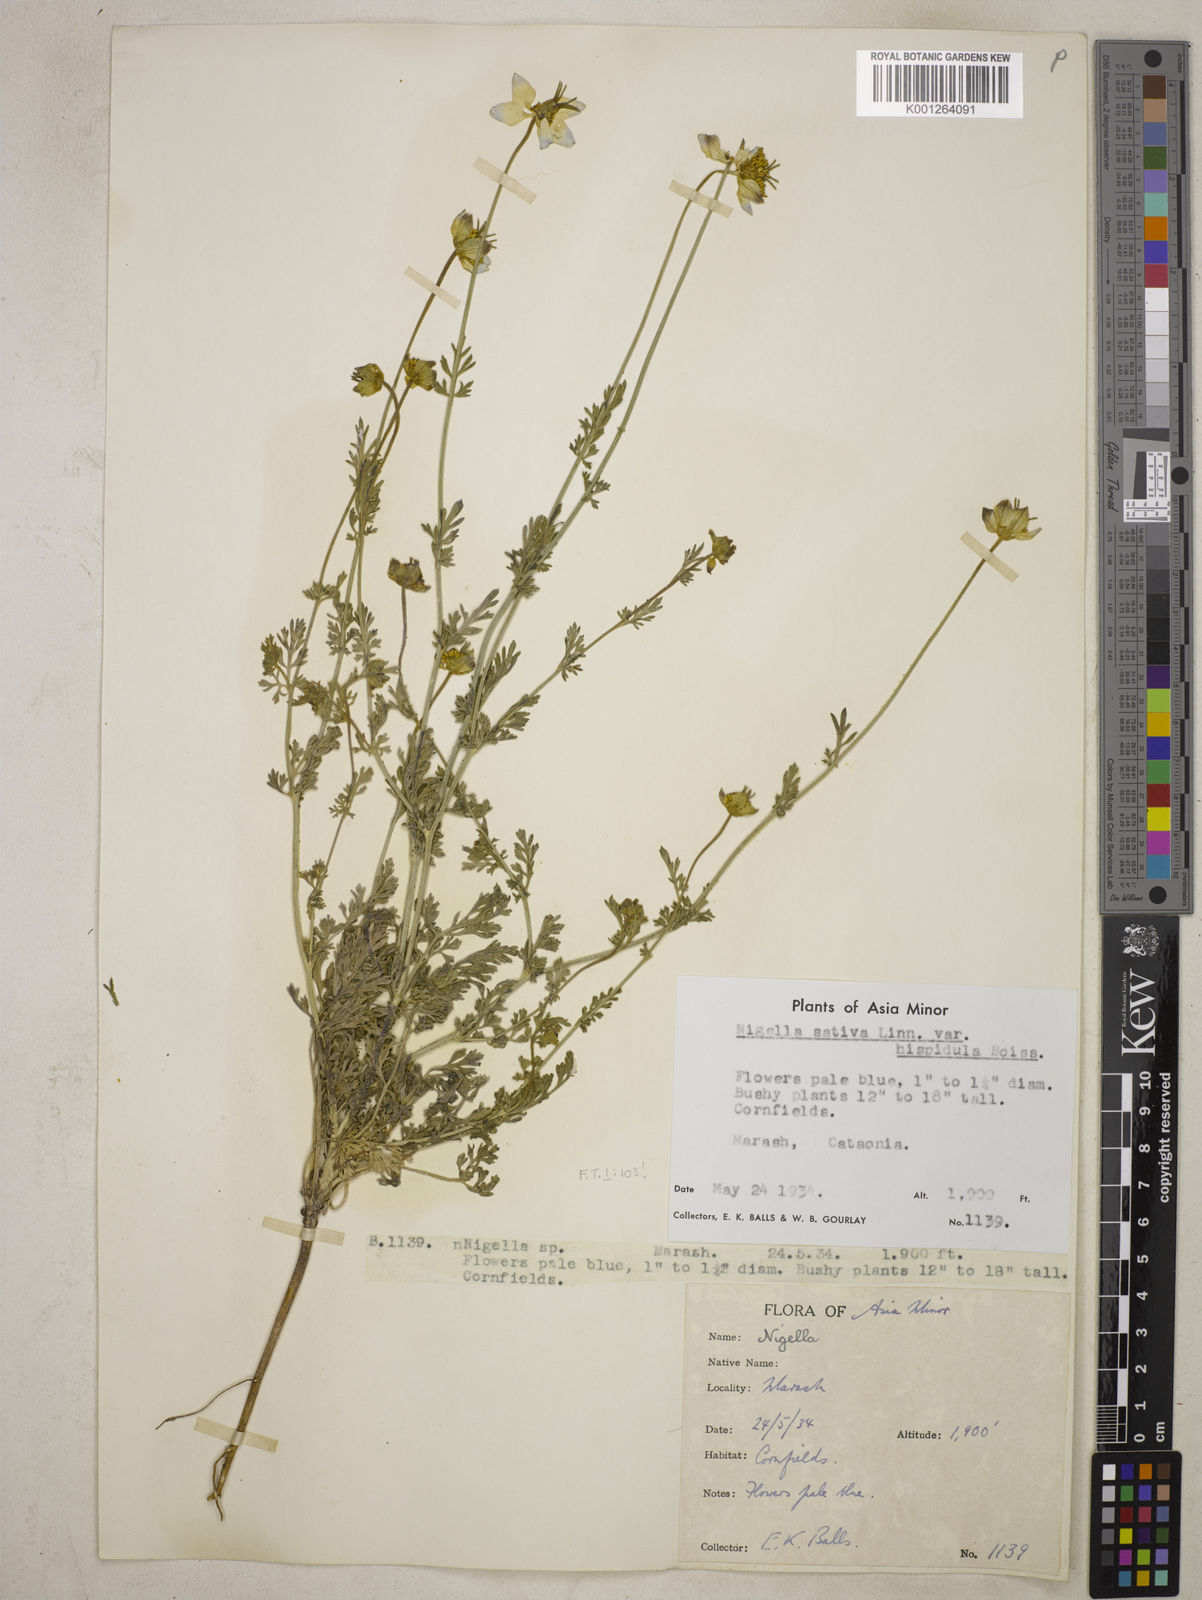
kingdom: Plantae
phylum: Tracheophyta
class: Magnoliopsida
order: Ranunculales
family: Ranunculaceae
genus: Nigella
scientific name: Nigella sativa
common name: Black-cumin
